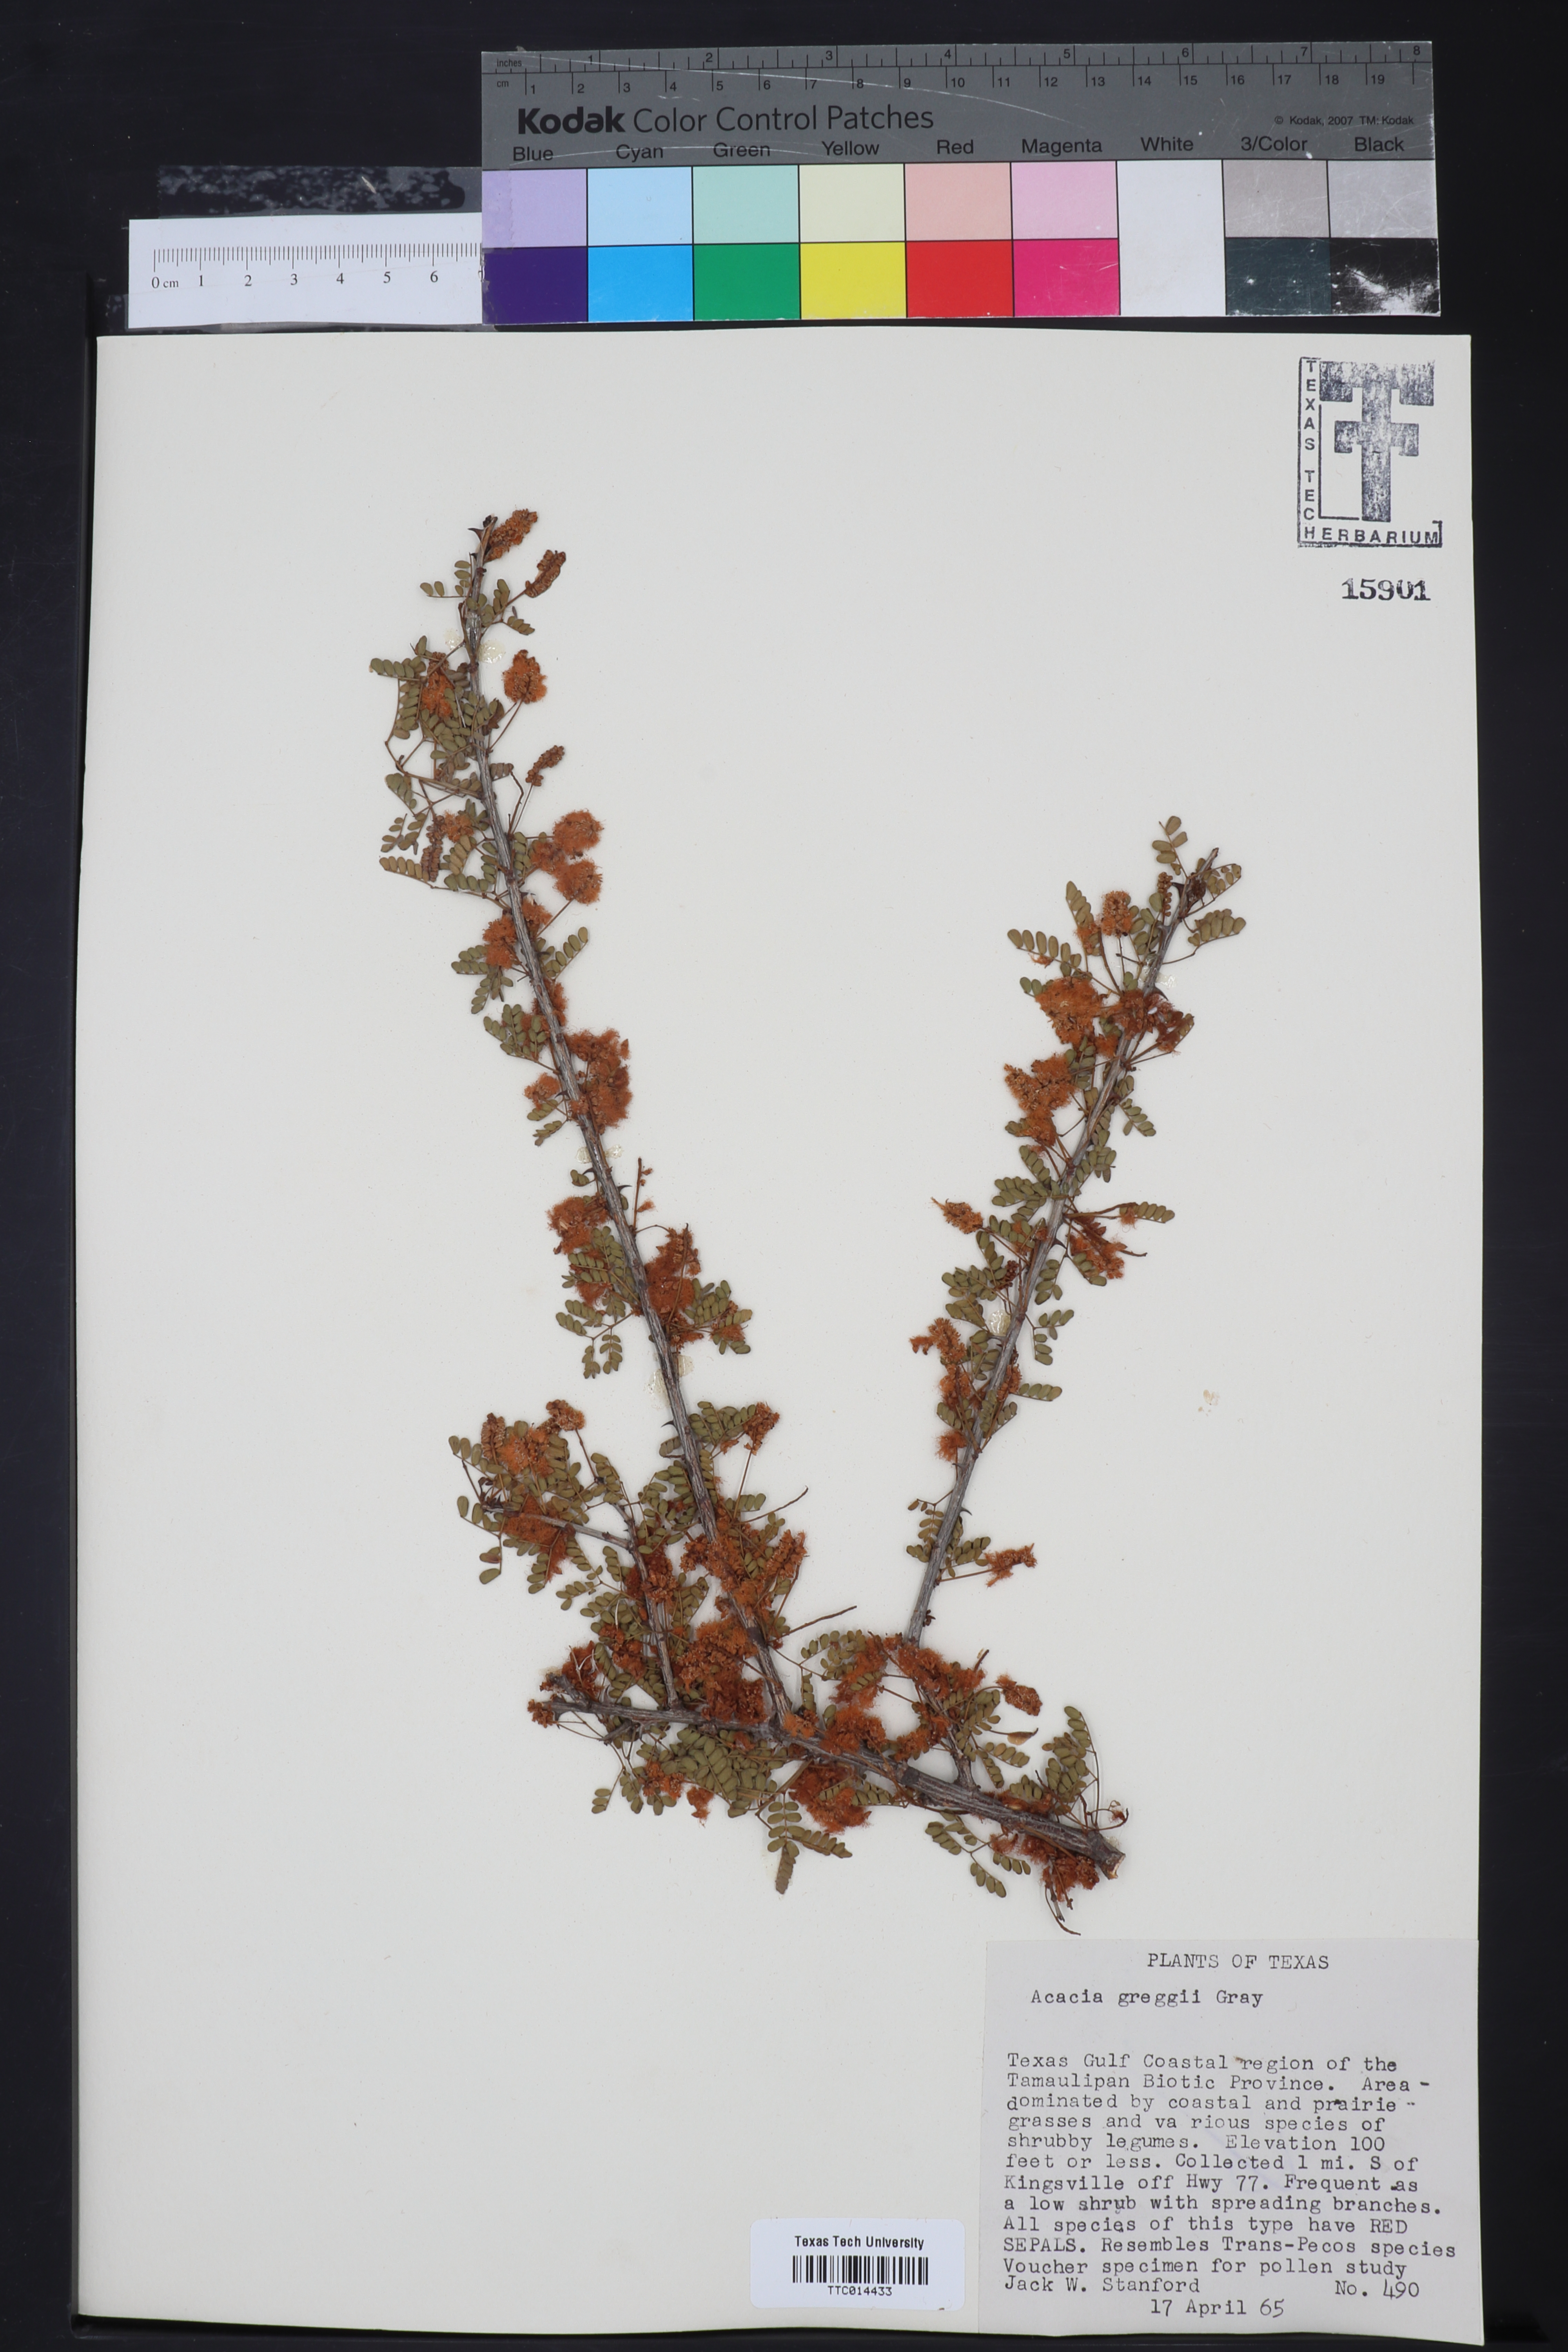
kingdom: Plantae
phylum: Tracheophyta
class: Magnoliopsida
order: Fabales
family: Fabaceae
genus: Senegalia
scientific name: Senegalia greggii
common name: Texas-mimosa
